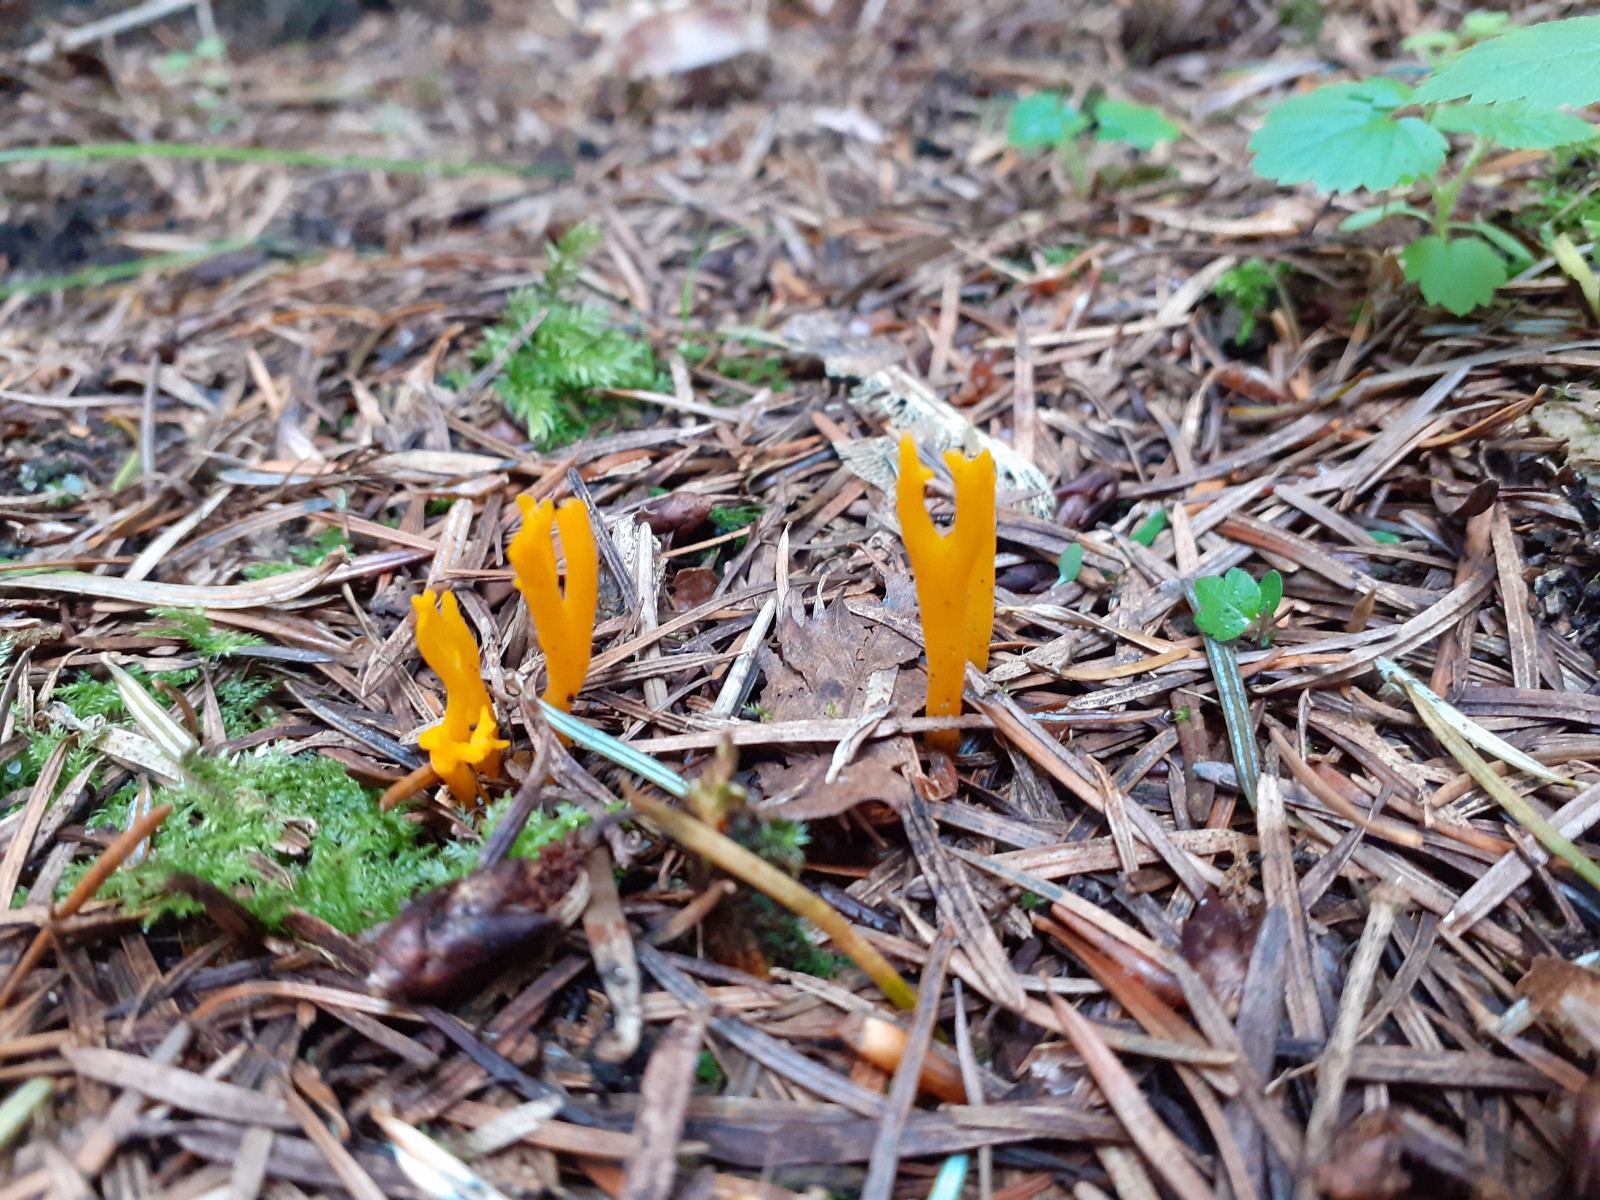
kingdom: Fungi
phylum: Basidiomycota
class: Dacrymycetes
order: Dacrymycetales
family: Dacrymycetaceae
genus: Calocera
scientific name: Calocera viscosa
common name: almindelig guldgaffel
